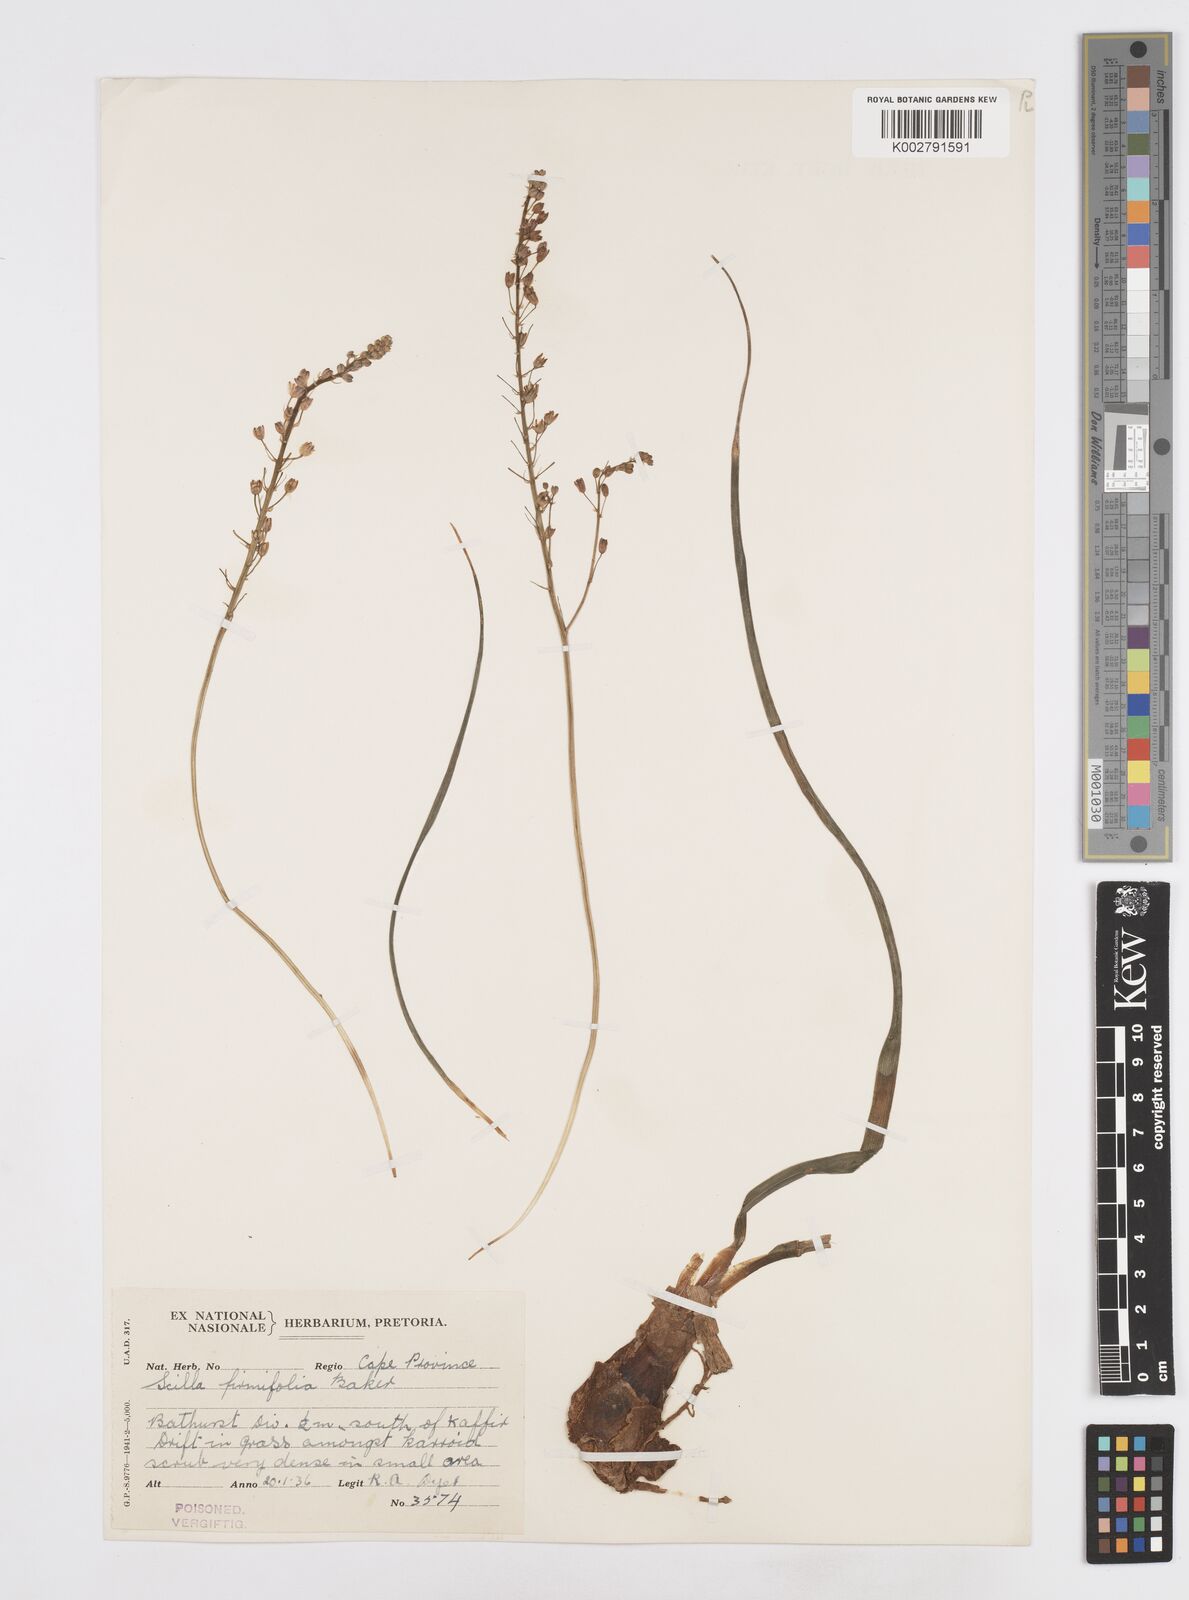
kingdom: Plantae
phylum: Tracheophyta
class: Liliopsida
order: Asparagales
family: Asparagaceae
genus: Pseudoprospero
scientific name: Pseudoprospero firmifolium
